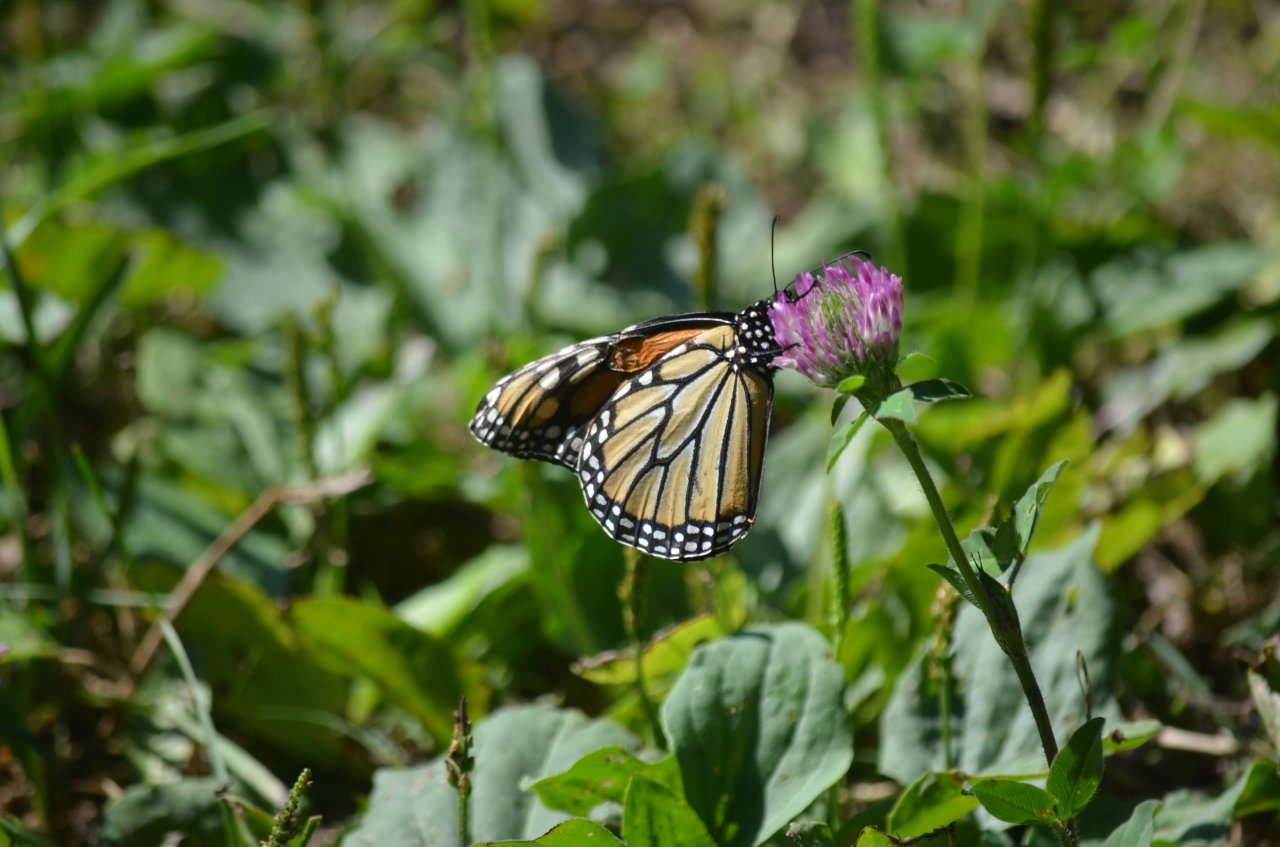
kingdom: Animalia
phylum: Arthropoda
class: Insecta
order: Lepidoptera
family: Nymphalidae
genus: Danaus
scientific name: Danaus plexippus
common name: Monarch
